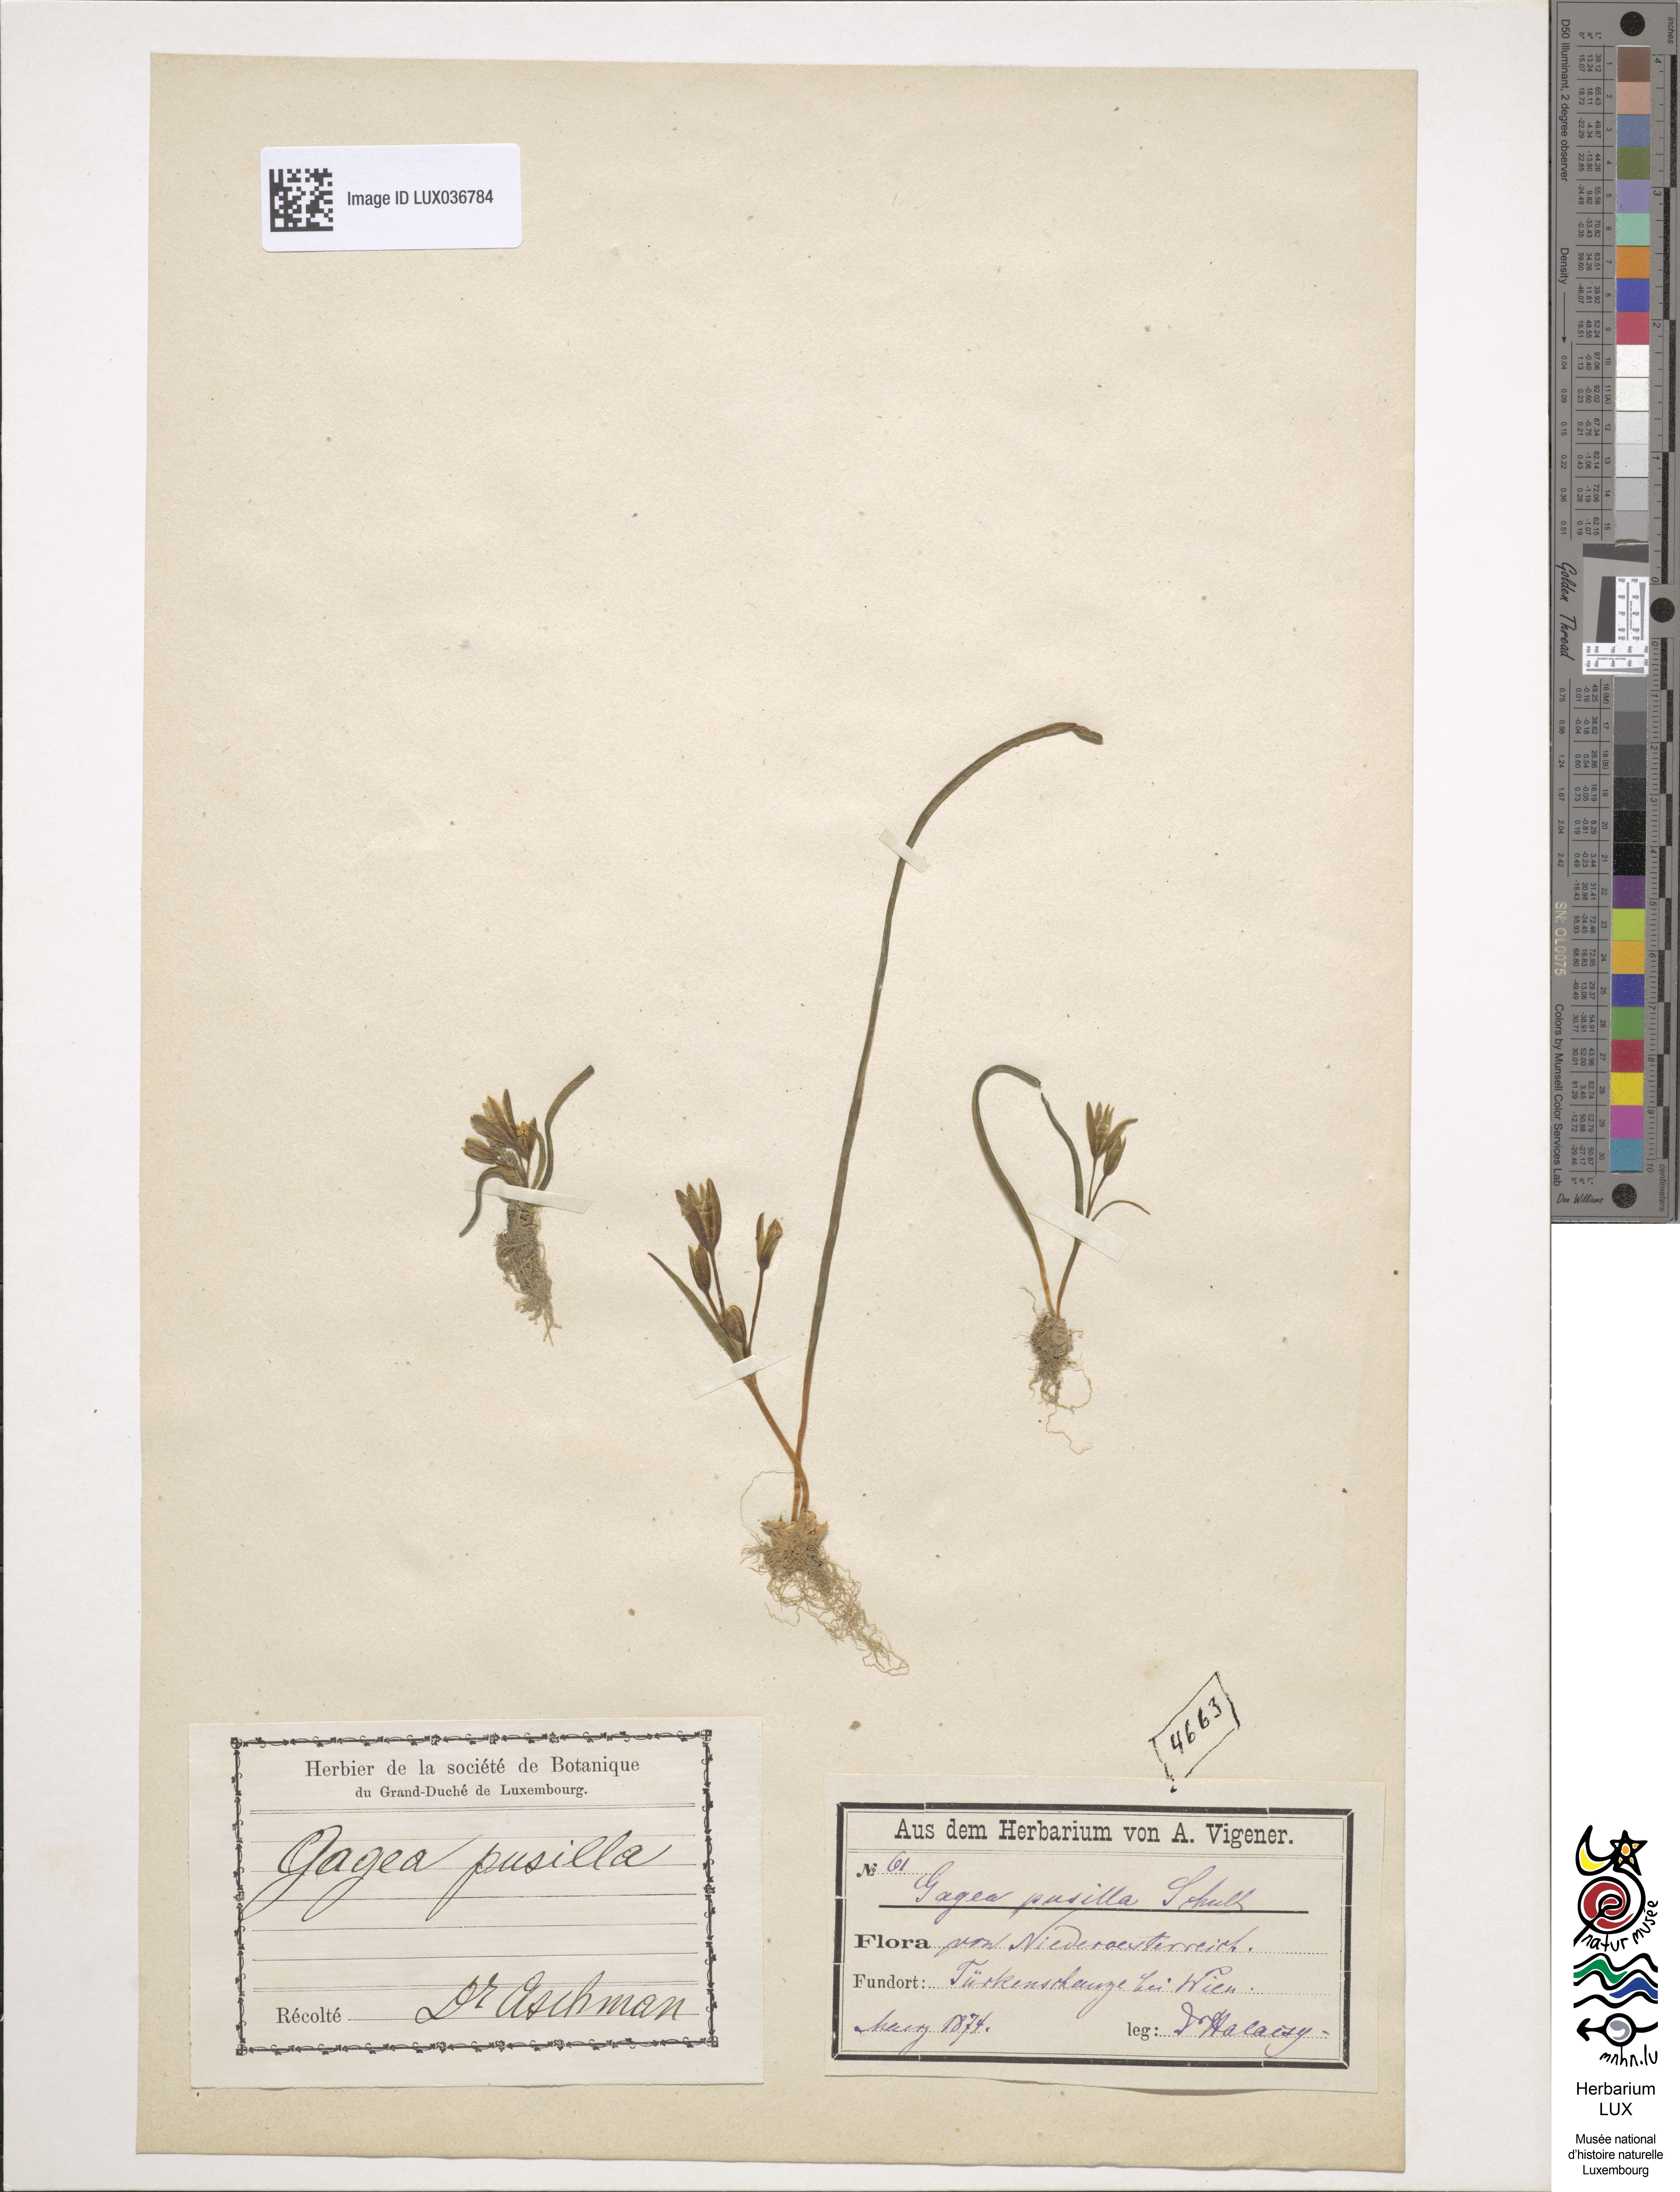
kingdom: Plantae
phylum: Tracheophyta
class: Liliopsida
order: Liliales
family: Liliaceae
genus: Gagea
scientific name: Gagea pusilla
